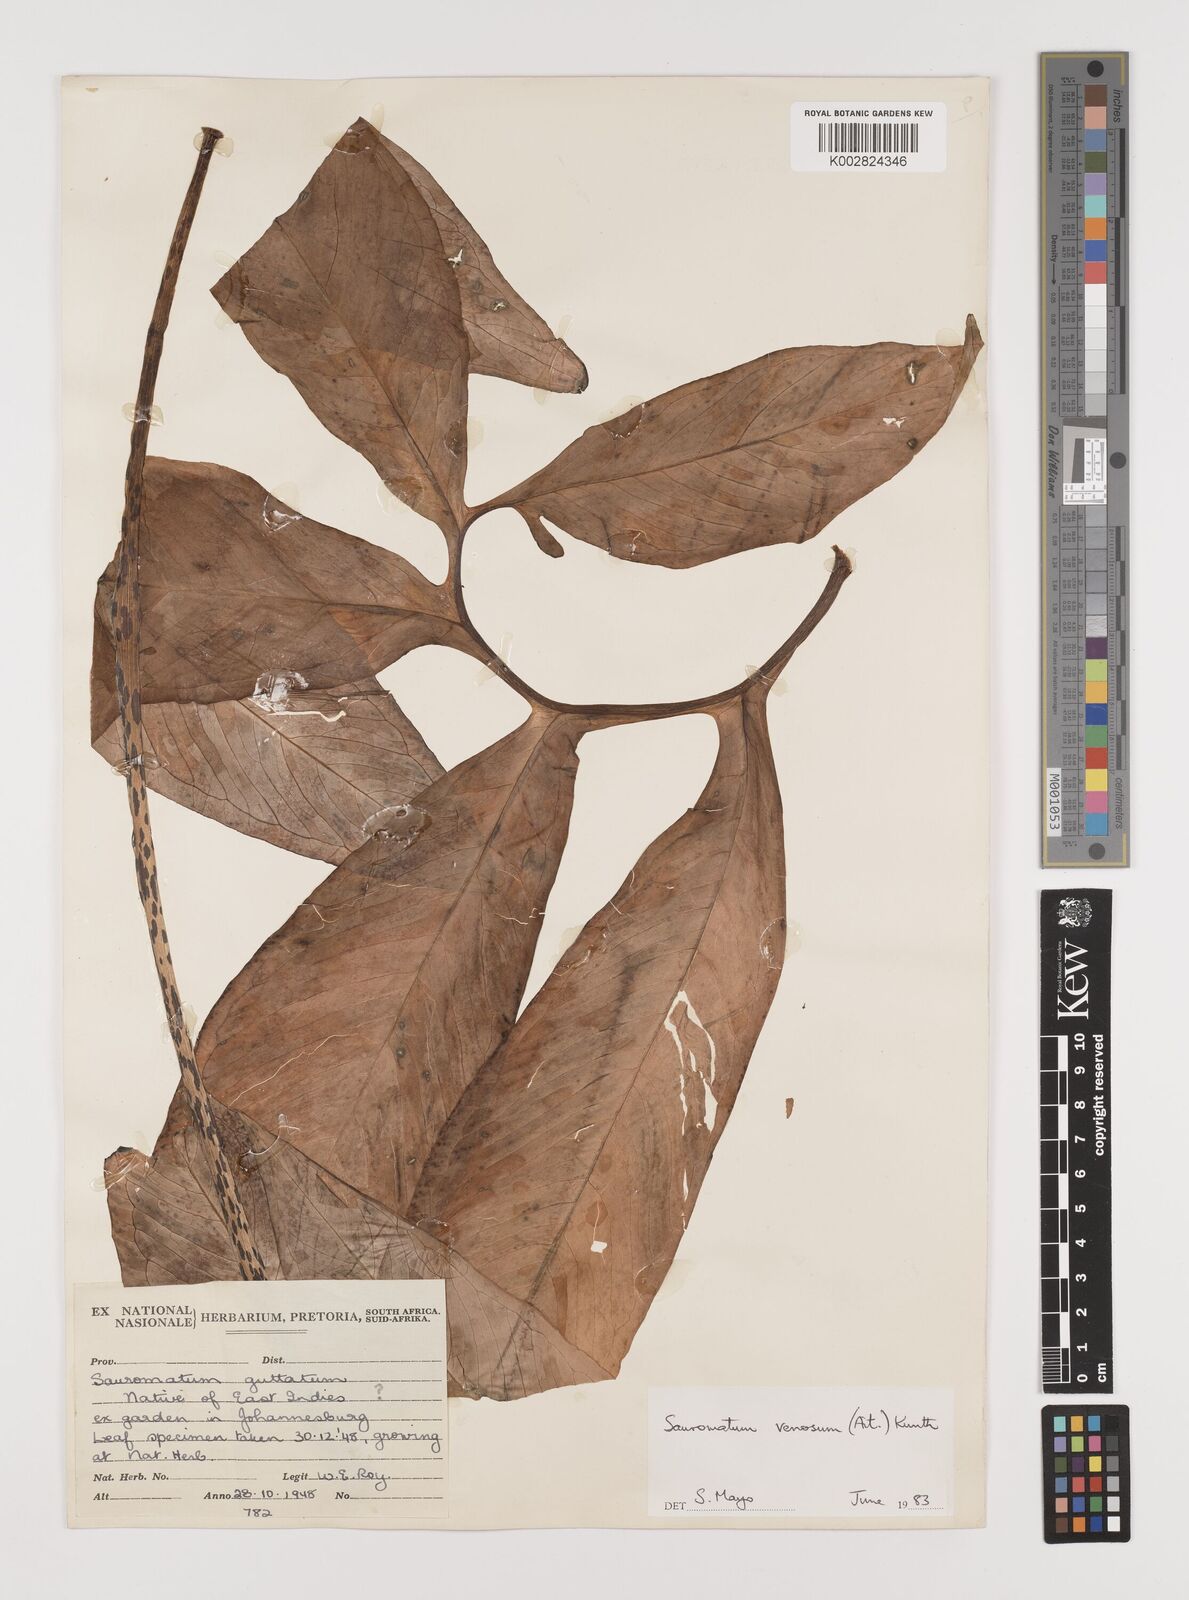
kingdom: Plantae
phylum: Tracheophyta
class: Liliopsida
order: Alismatales
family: Araceae
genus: Sauromatum
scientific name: Sauromatum venosum
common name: Voodoo lily
